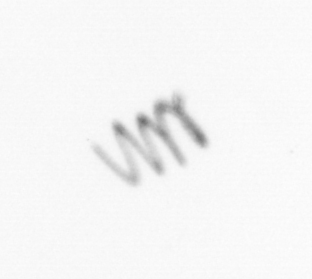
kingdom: Chromista
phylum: Ochrophyta
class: Bacillariophyceae
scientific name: Bacillariophyceae
